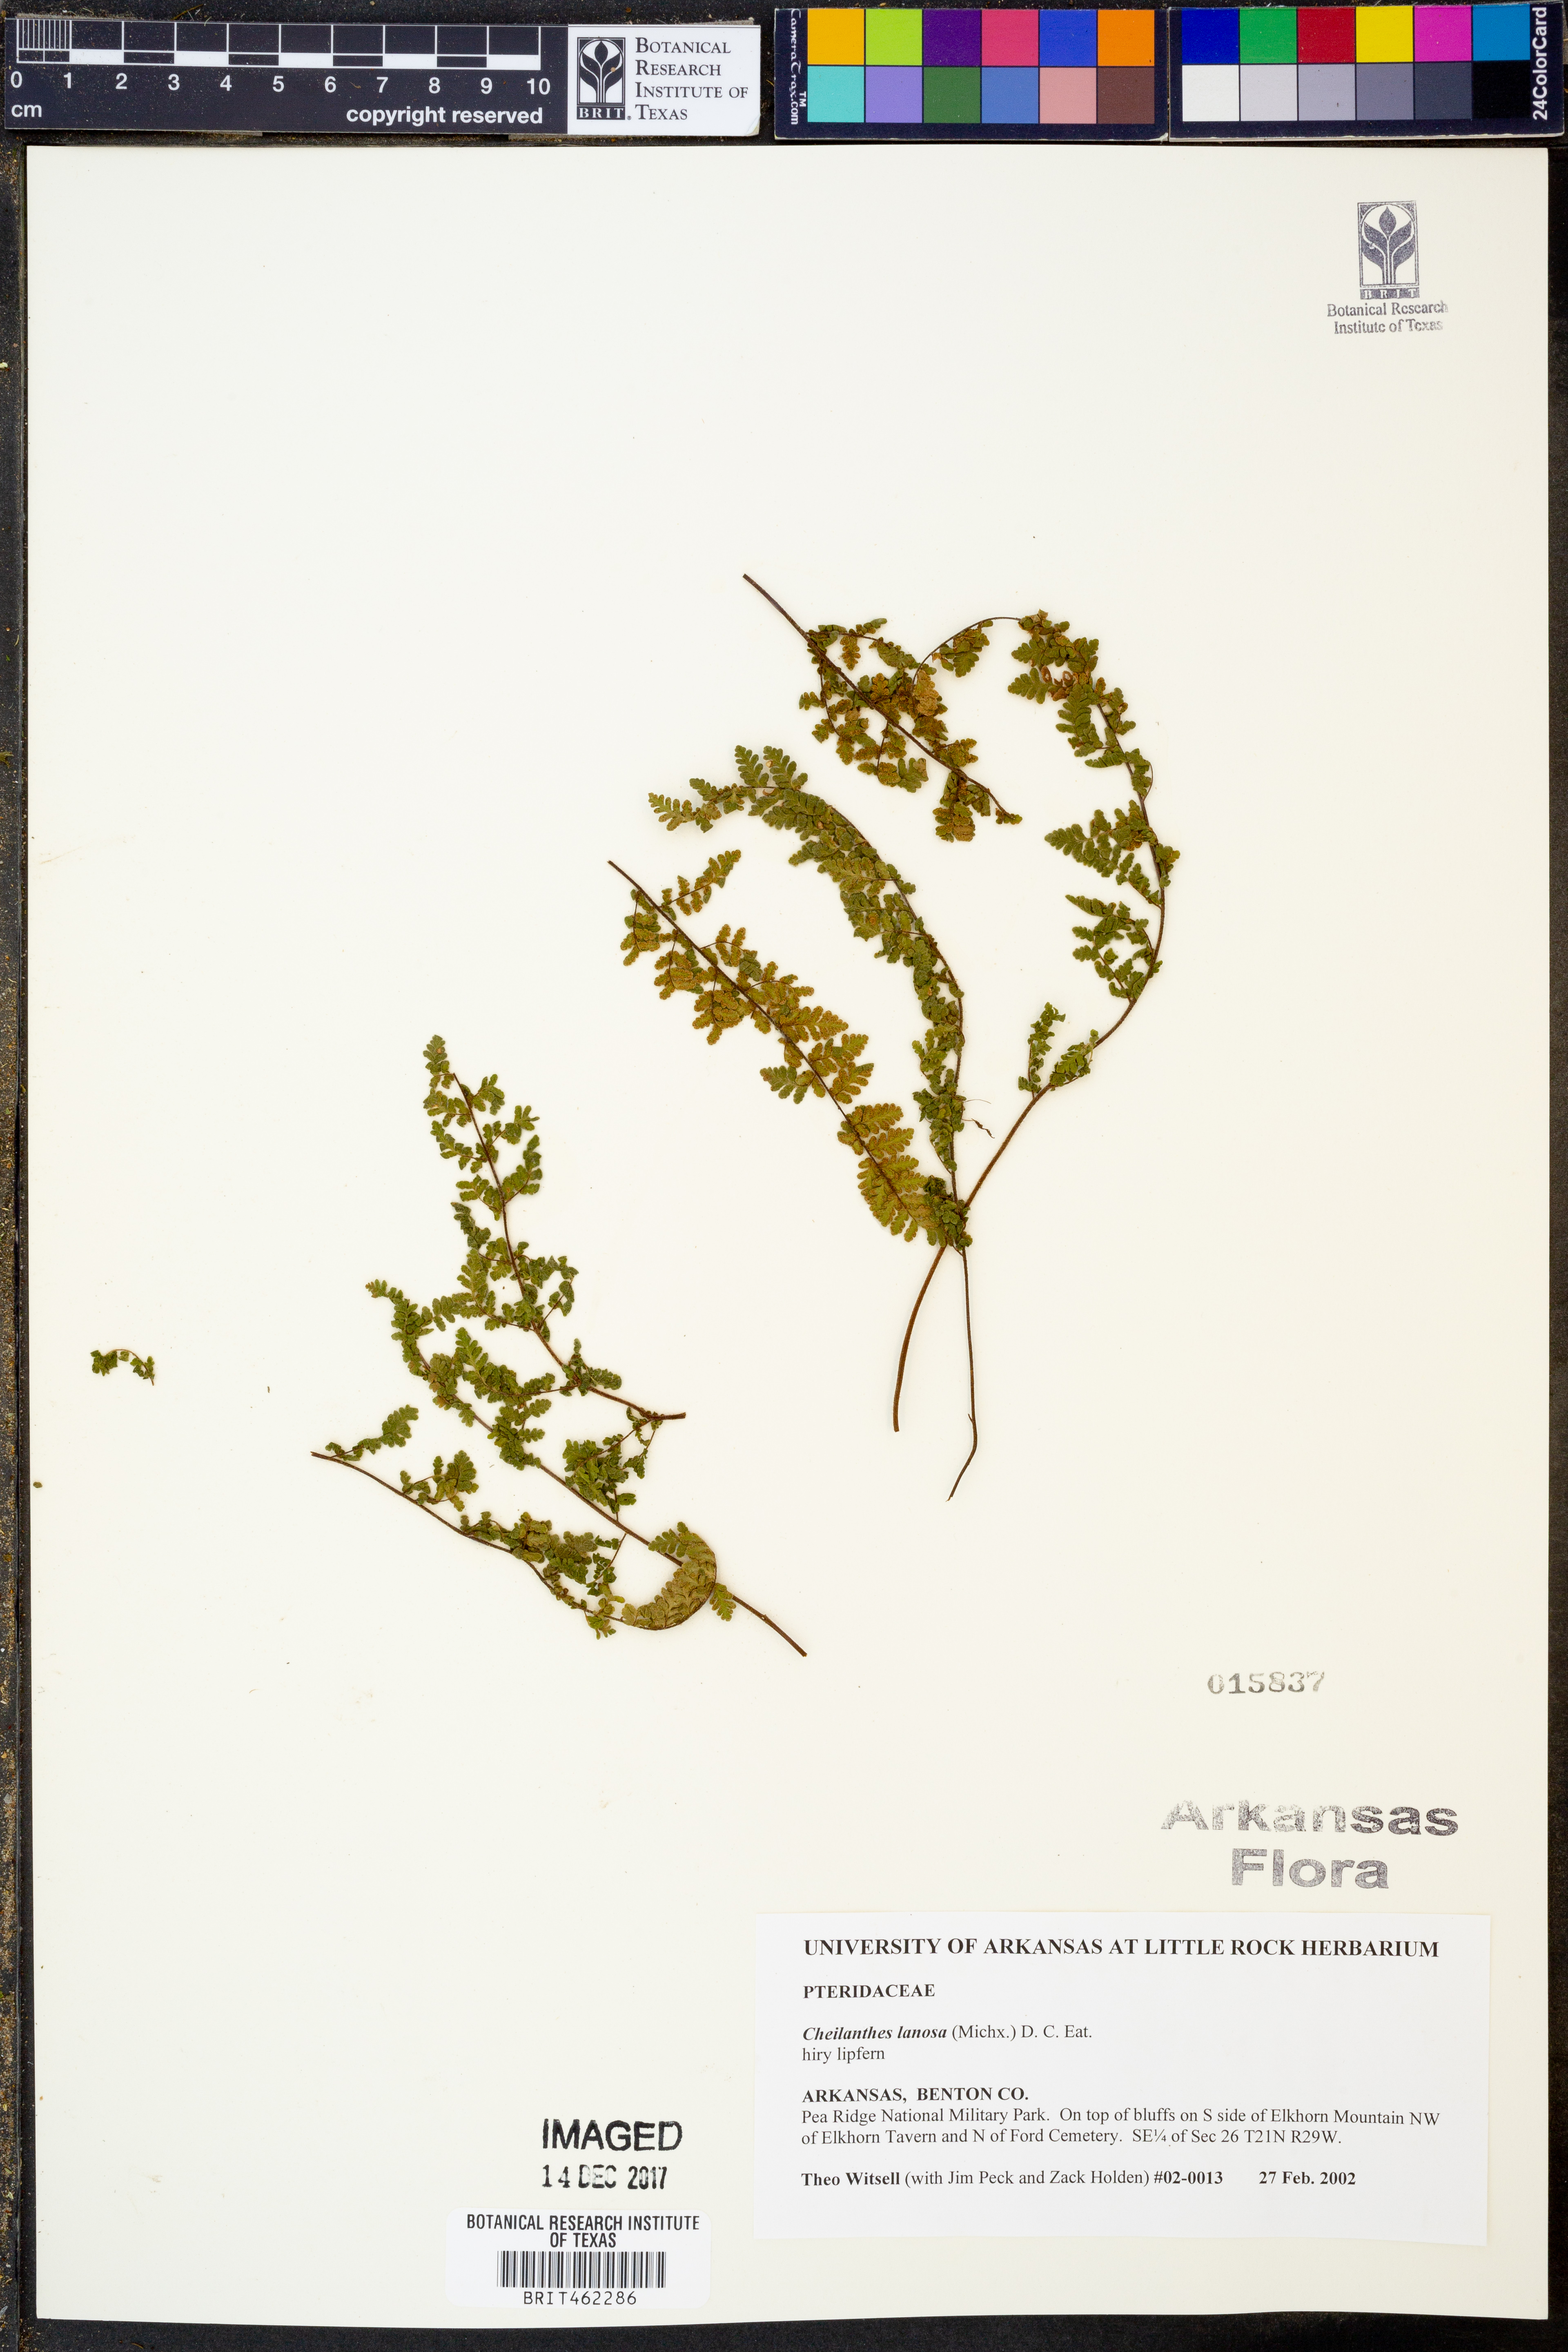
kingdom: Plantae
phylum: Tracheophyta
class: Polypodiopsida
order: Polypodiales
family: Pteridaceae
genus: Myriopteris
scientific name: Myriopteris lanosa
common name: Hairy lip fern
